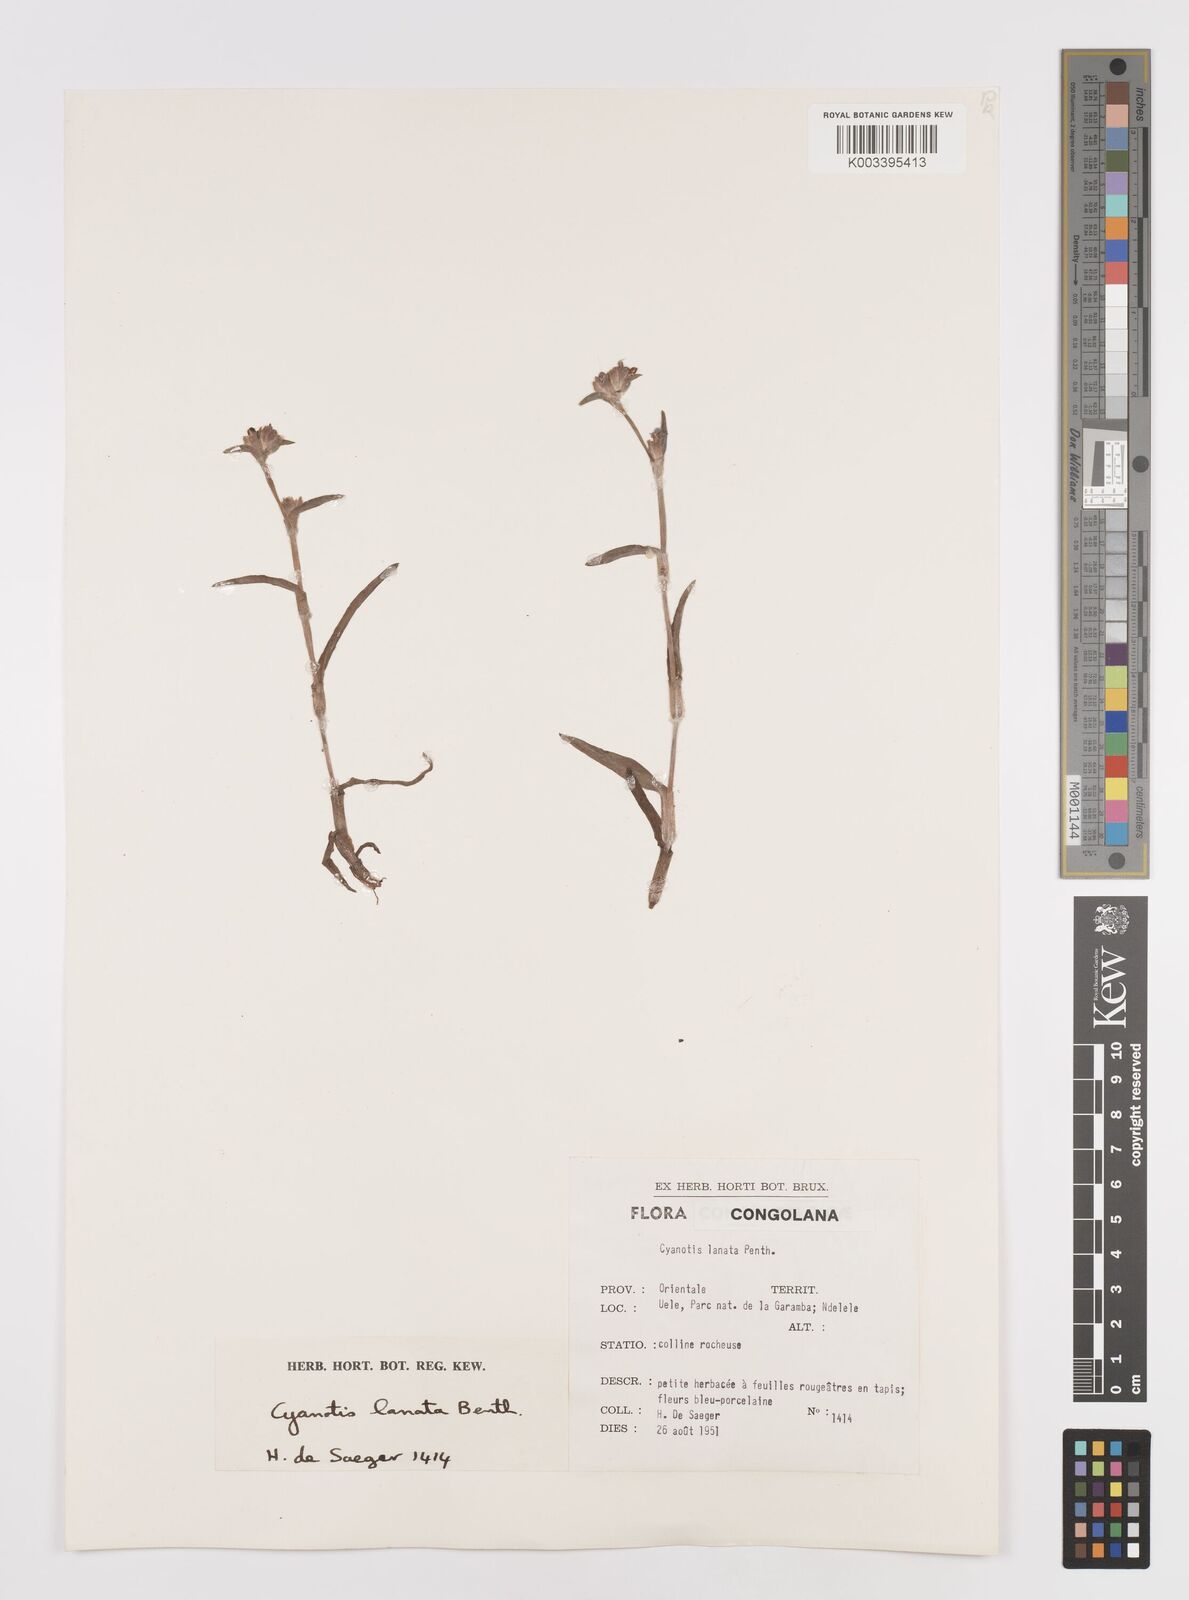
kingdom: Plantae
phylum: Tracheophyta
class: Liliopsida
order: Commelinales
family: Commelinaceae
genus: Cyanotis
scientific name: Cyanotis lanata
